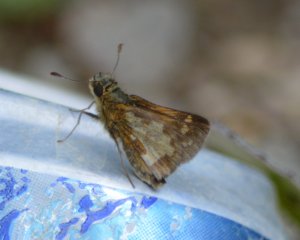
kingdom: Animalia
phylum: Arthropoda
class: Insecta
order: Lepidoptera
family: Hesperiidae
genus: Polites
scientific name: Polites coras
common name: Peck's Skipper
